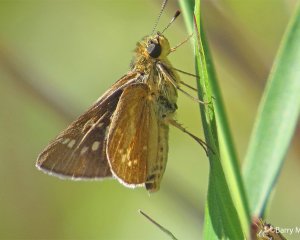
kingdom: Animalia
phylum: Arthropoda
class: Insecta
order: Lepidoptera
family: Hesperiidae
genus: Mastor
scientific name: Mastor carolina
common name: Reversed Roadside-skipper
